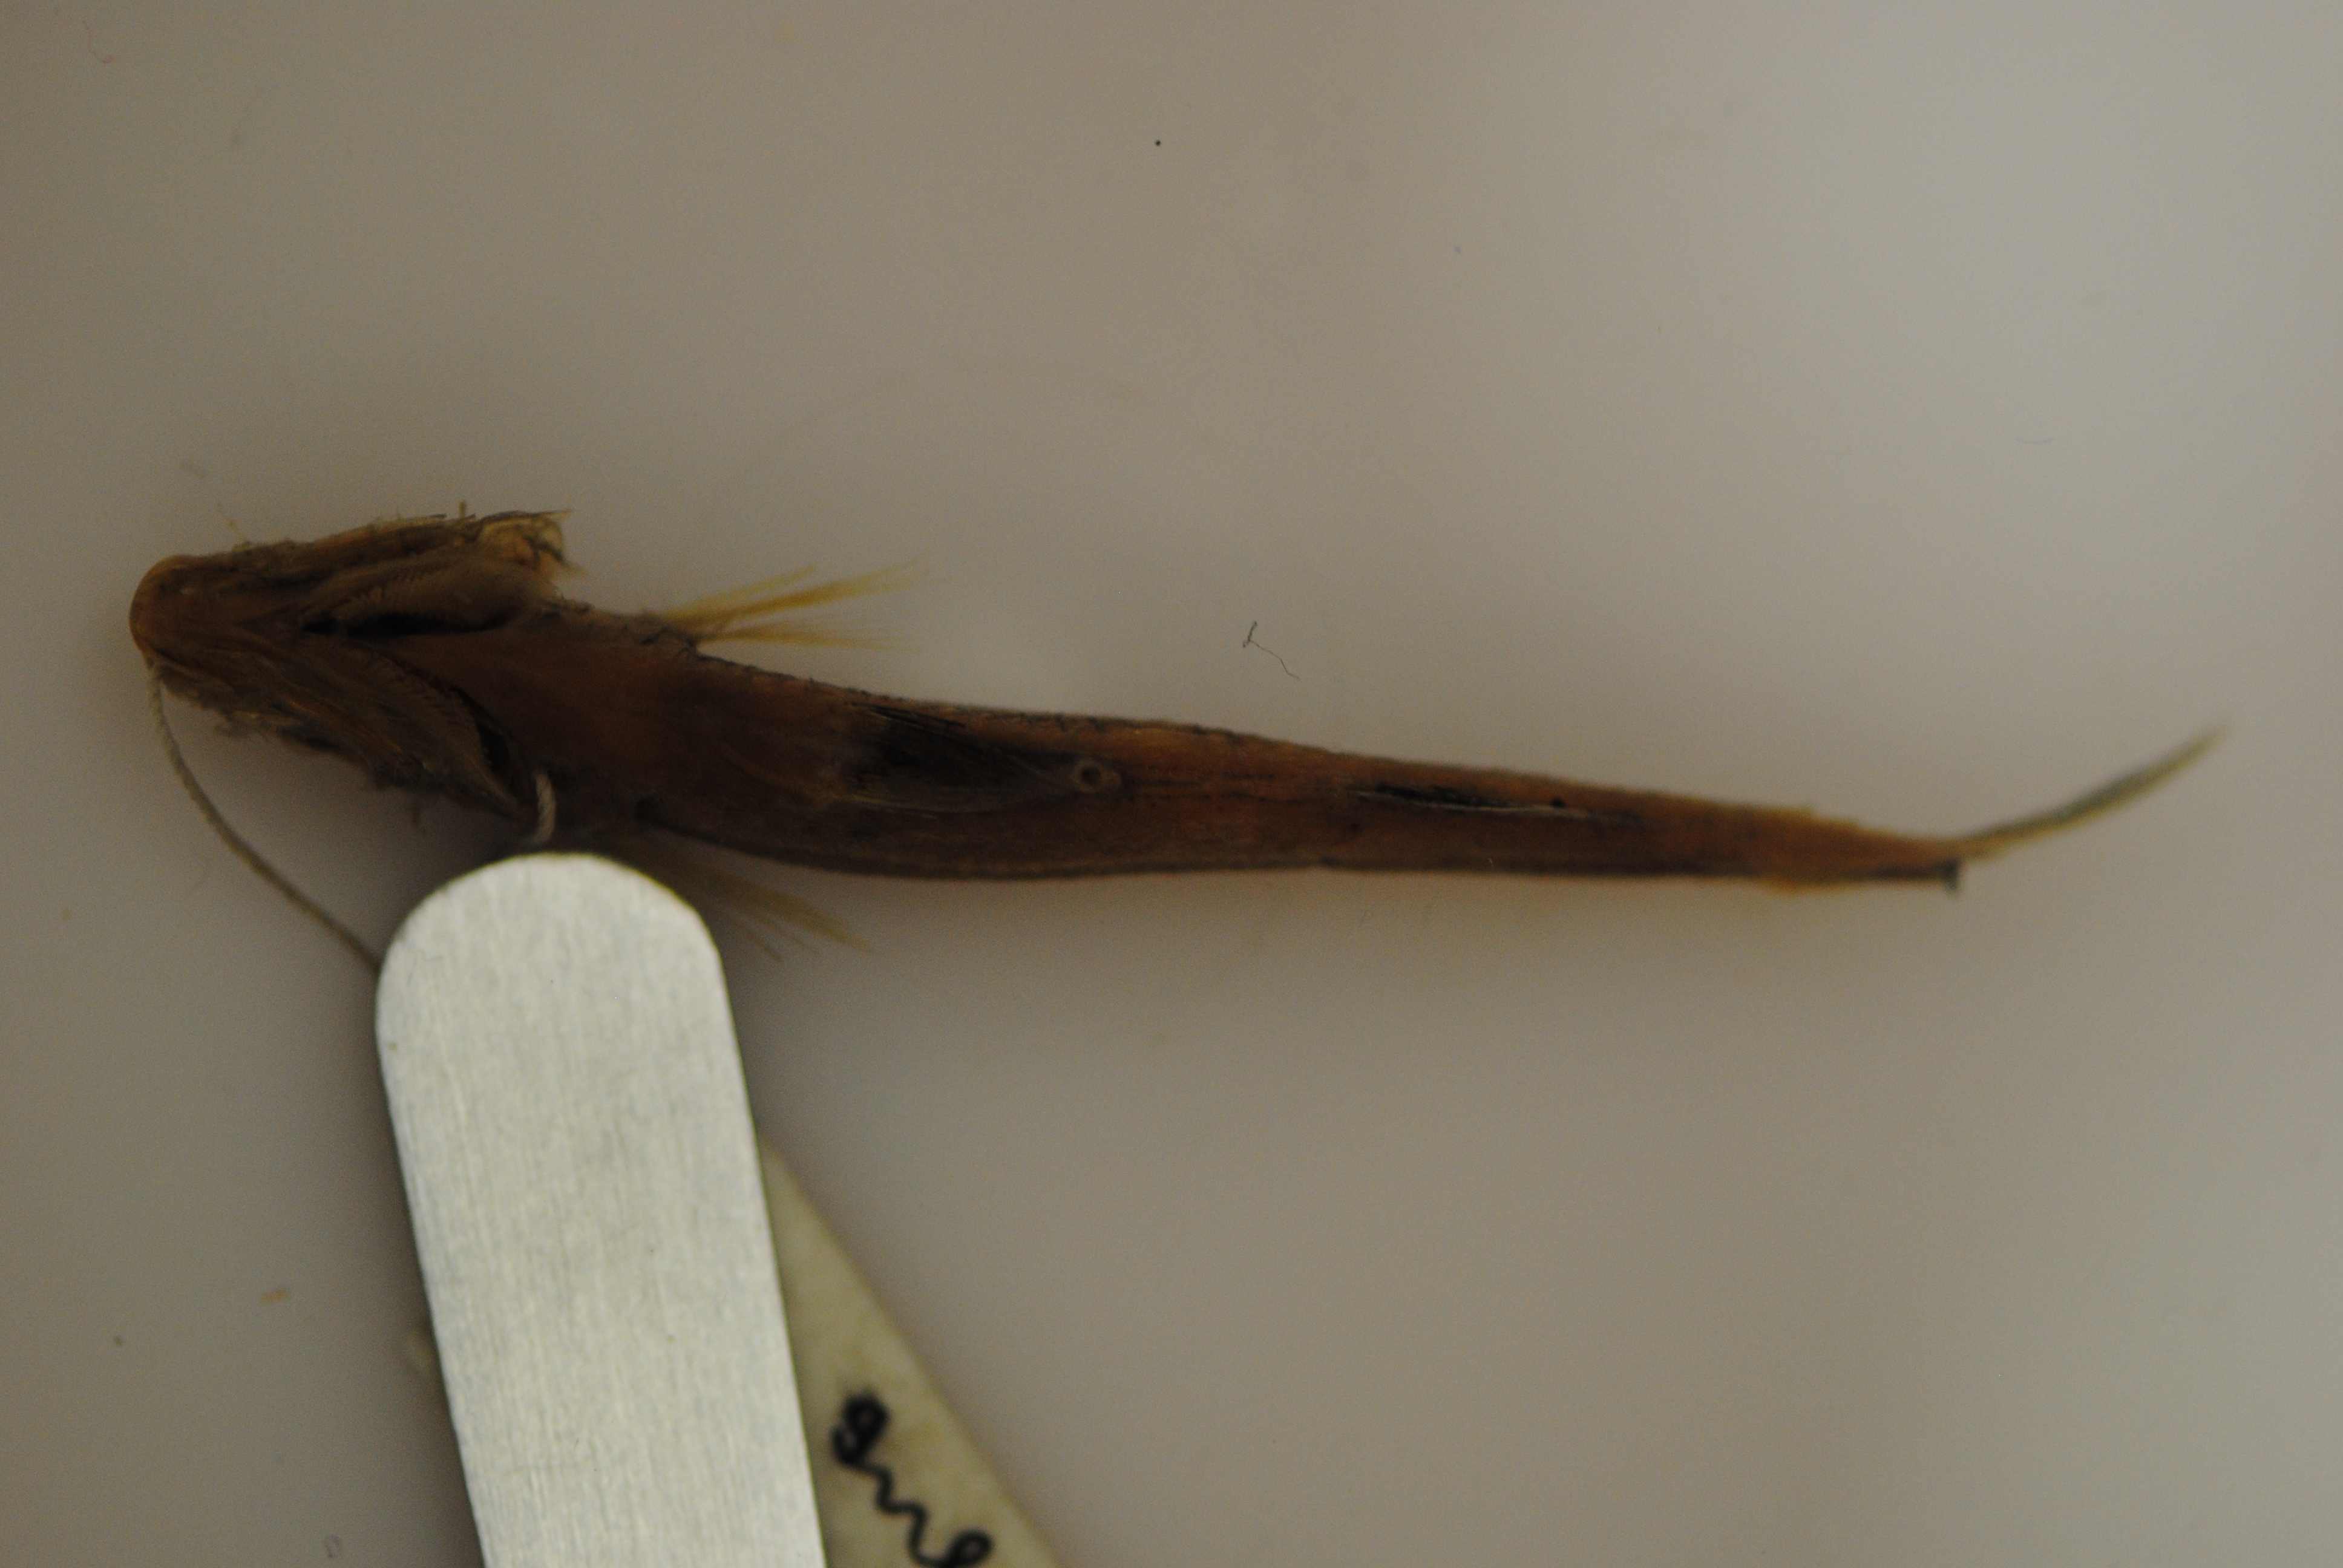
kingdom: Animalia
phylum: Chordata
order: Atheriniformes
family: Atherinidae
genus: Hypoatherina
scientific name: Hypoatherina barnesi
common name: Slender silverside
